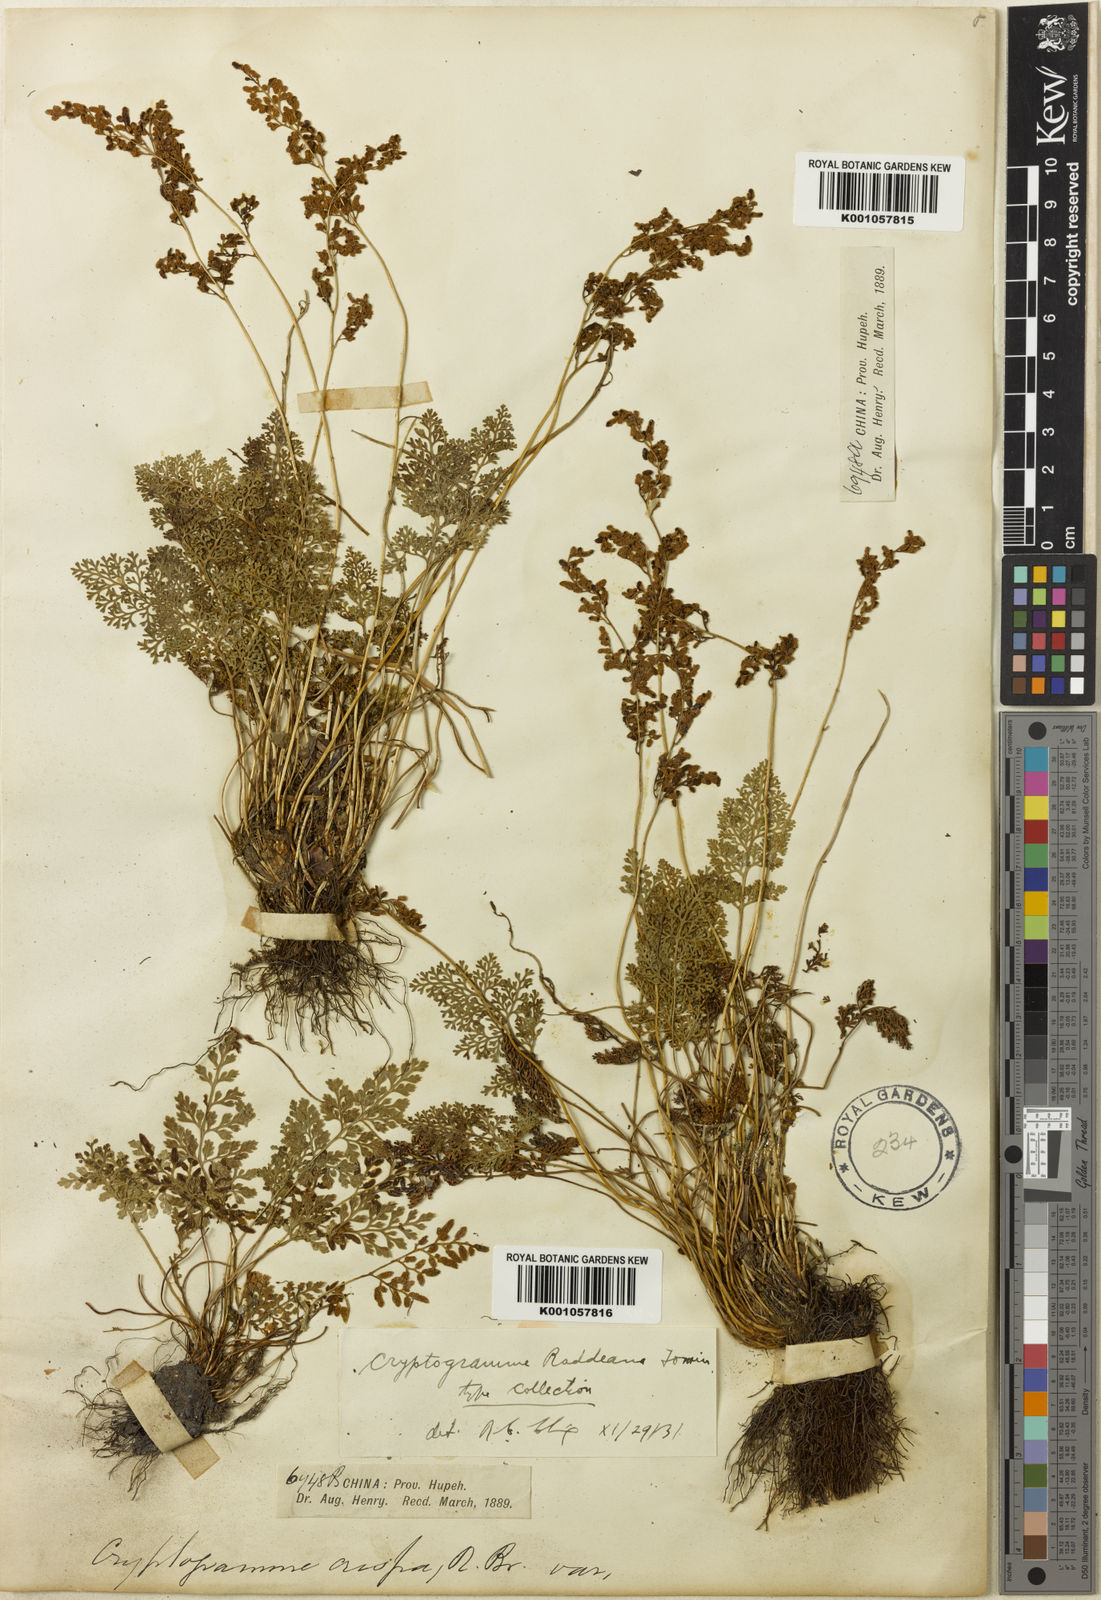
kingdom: Plantae
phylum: Tracheophyta
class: Polypodiopsida
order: Polypodiales
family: Pteridaceae
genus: Cryptogramma
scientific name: Cryptogramma brunoniana
